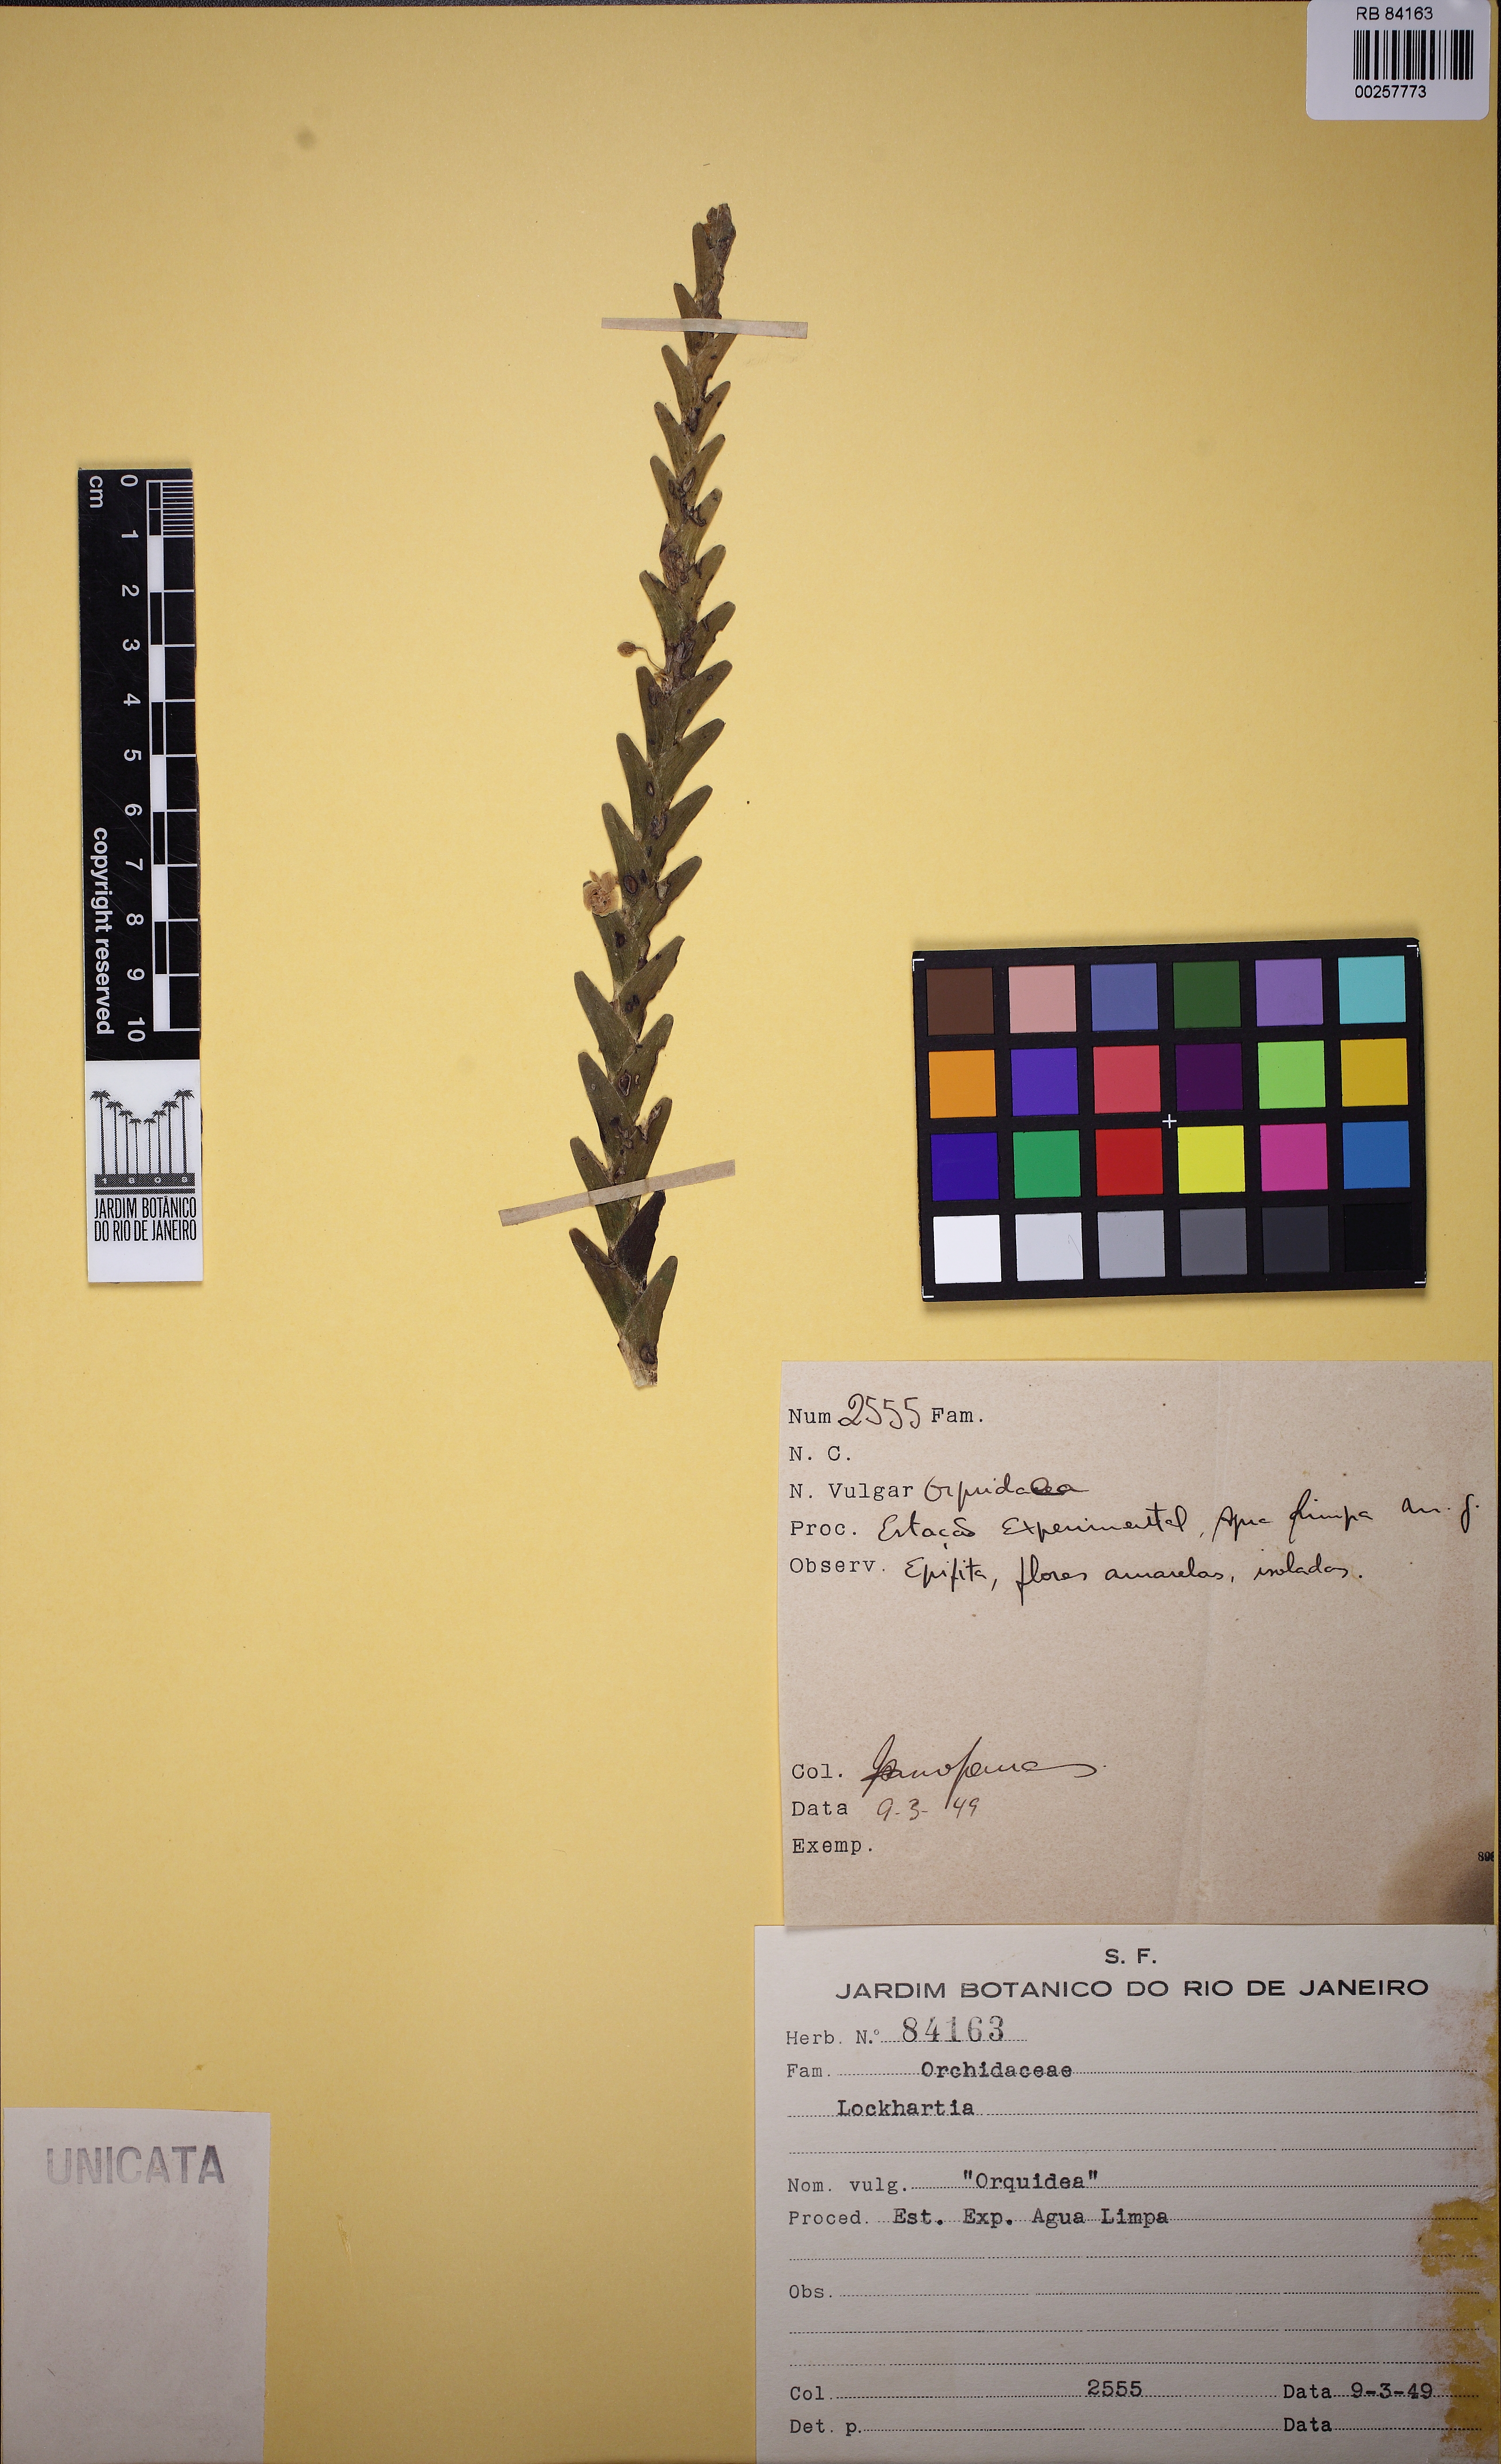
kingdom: Plantae
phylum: Tracheophyta
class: Liliopsida
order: Asparagales
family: Orchidaceae
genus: Lockhartia
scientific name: Lockhartia
